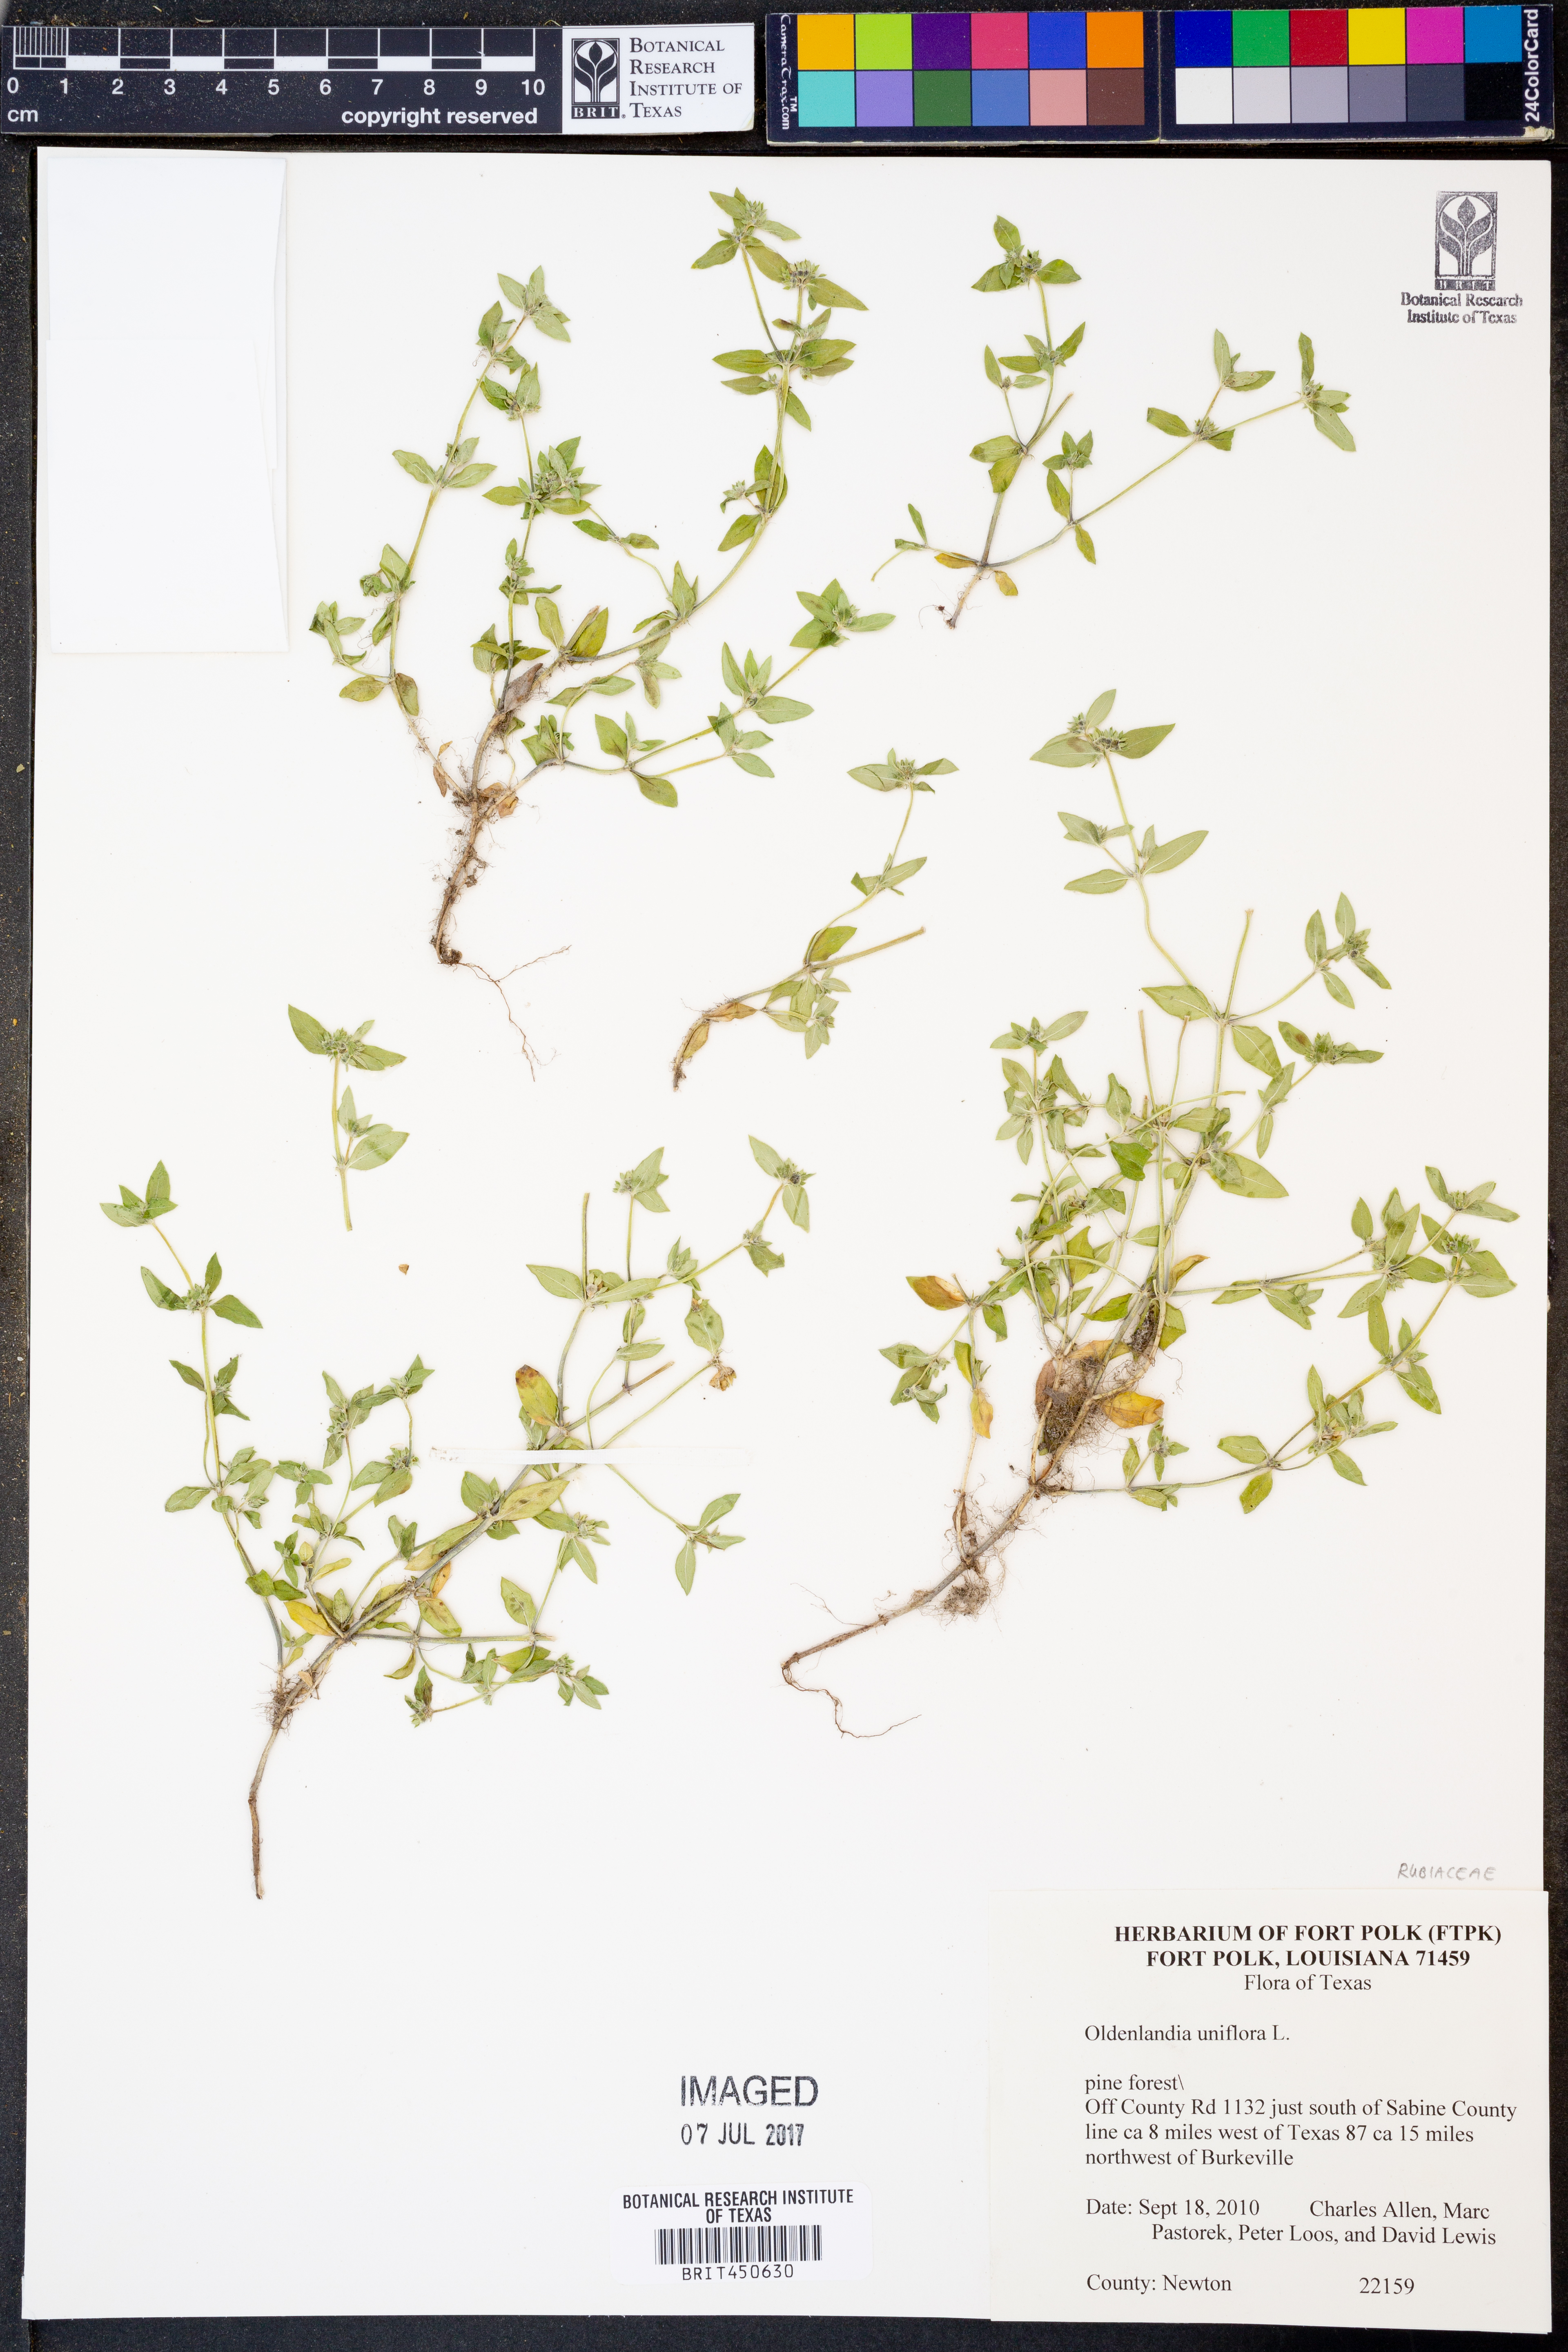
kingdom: Plantae
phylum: Tracheophyta
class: Magnoliopsida
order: Gentianales
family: Rubiaceae
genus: Edrastima
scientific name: Edrastima uniflora
